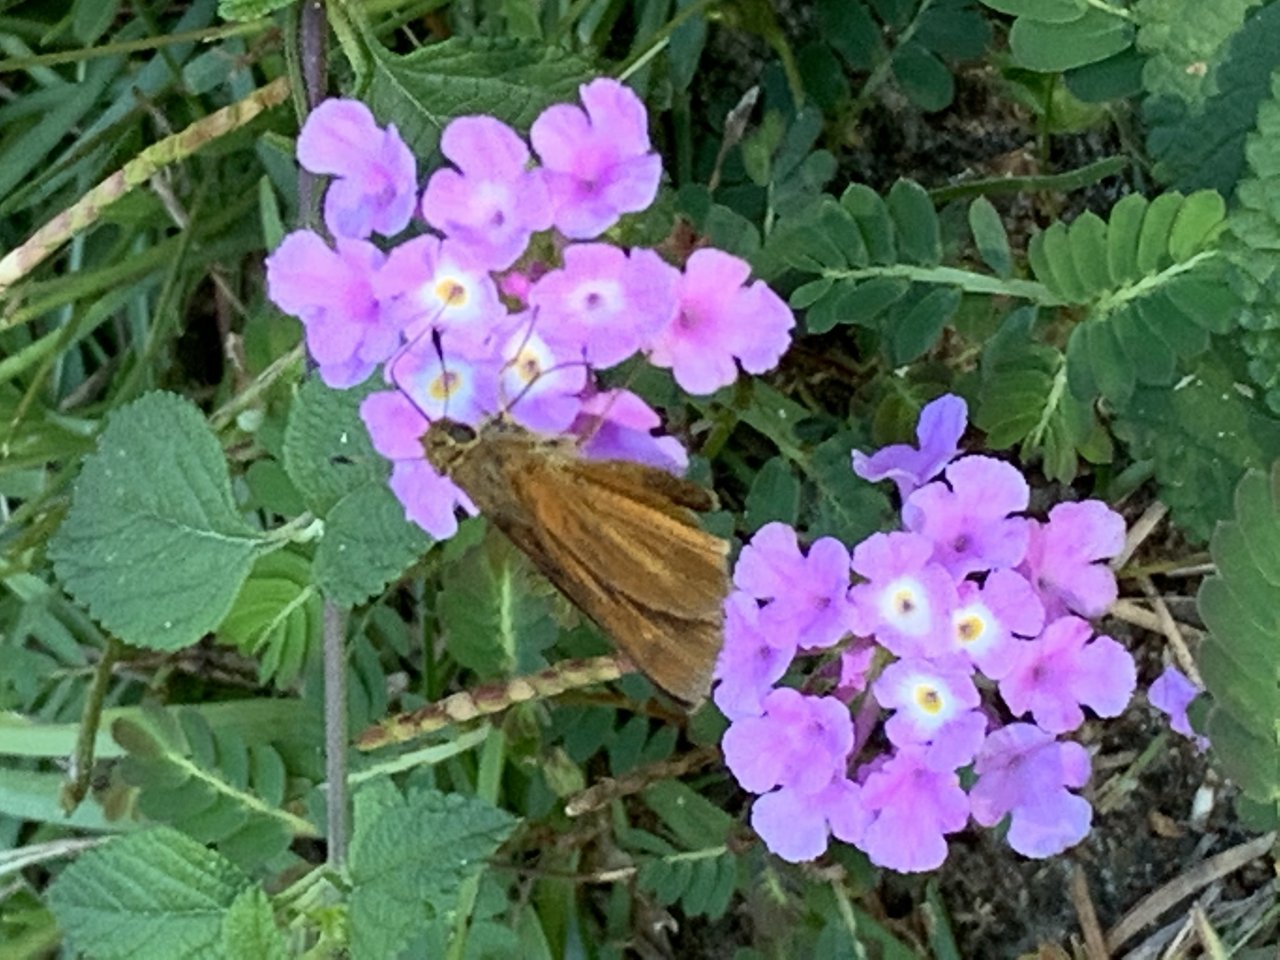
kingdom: Animalia
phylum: Arthropoda
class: Insecta
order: Lepidoptera
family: Hesperiidae
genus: Euphyes
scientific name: Euphyes dion
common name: Dion Skipper
